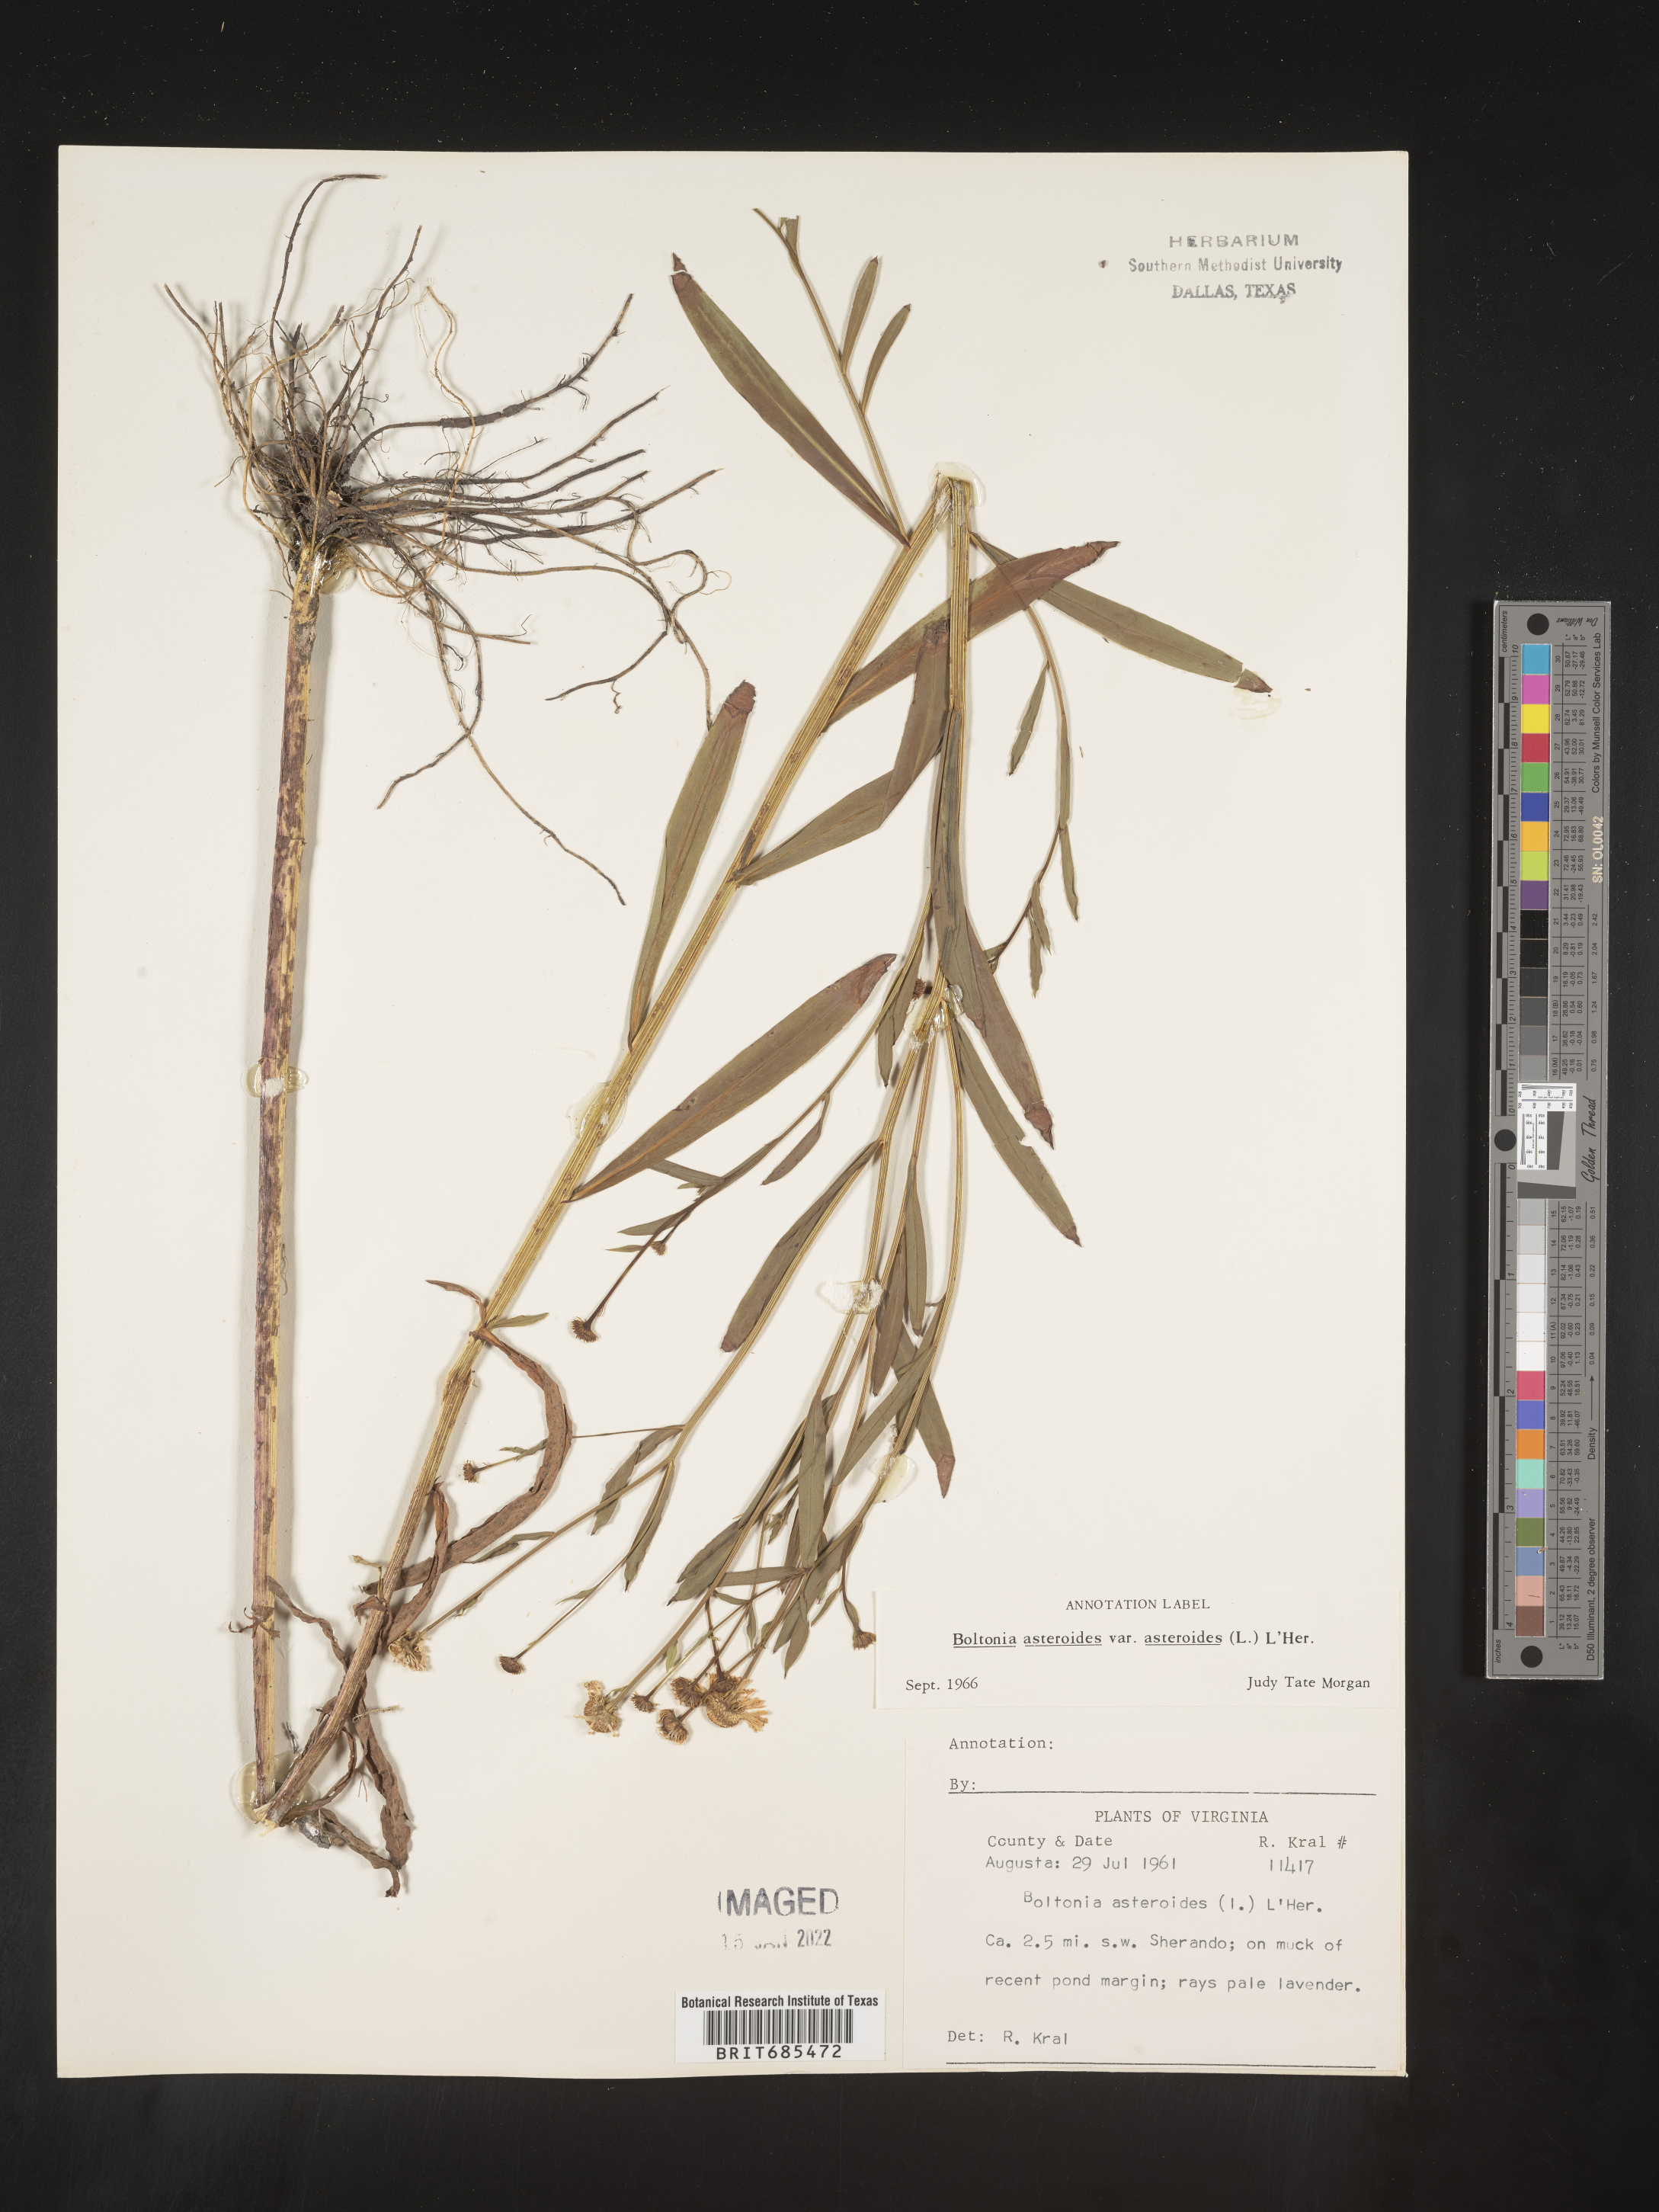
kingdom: Plantae
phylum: Tracheophyta
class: Magnoliopsida
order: Asterales
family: Asteraceae
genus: Boltonia
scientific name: Boltonia asteroides
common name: False chamomile
